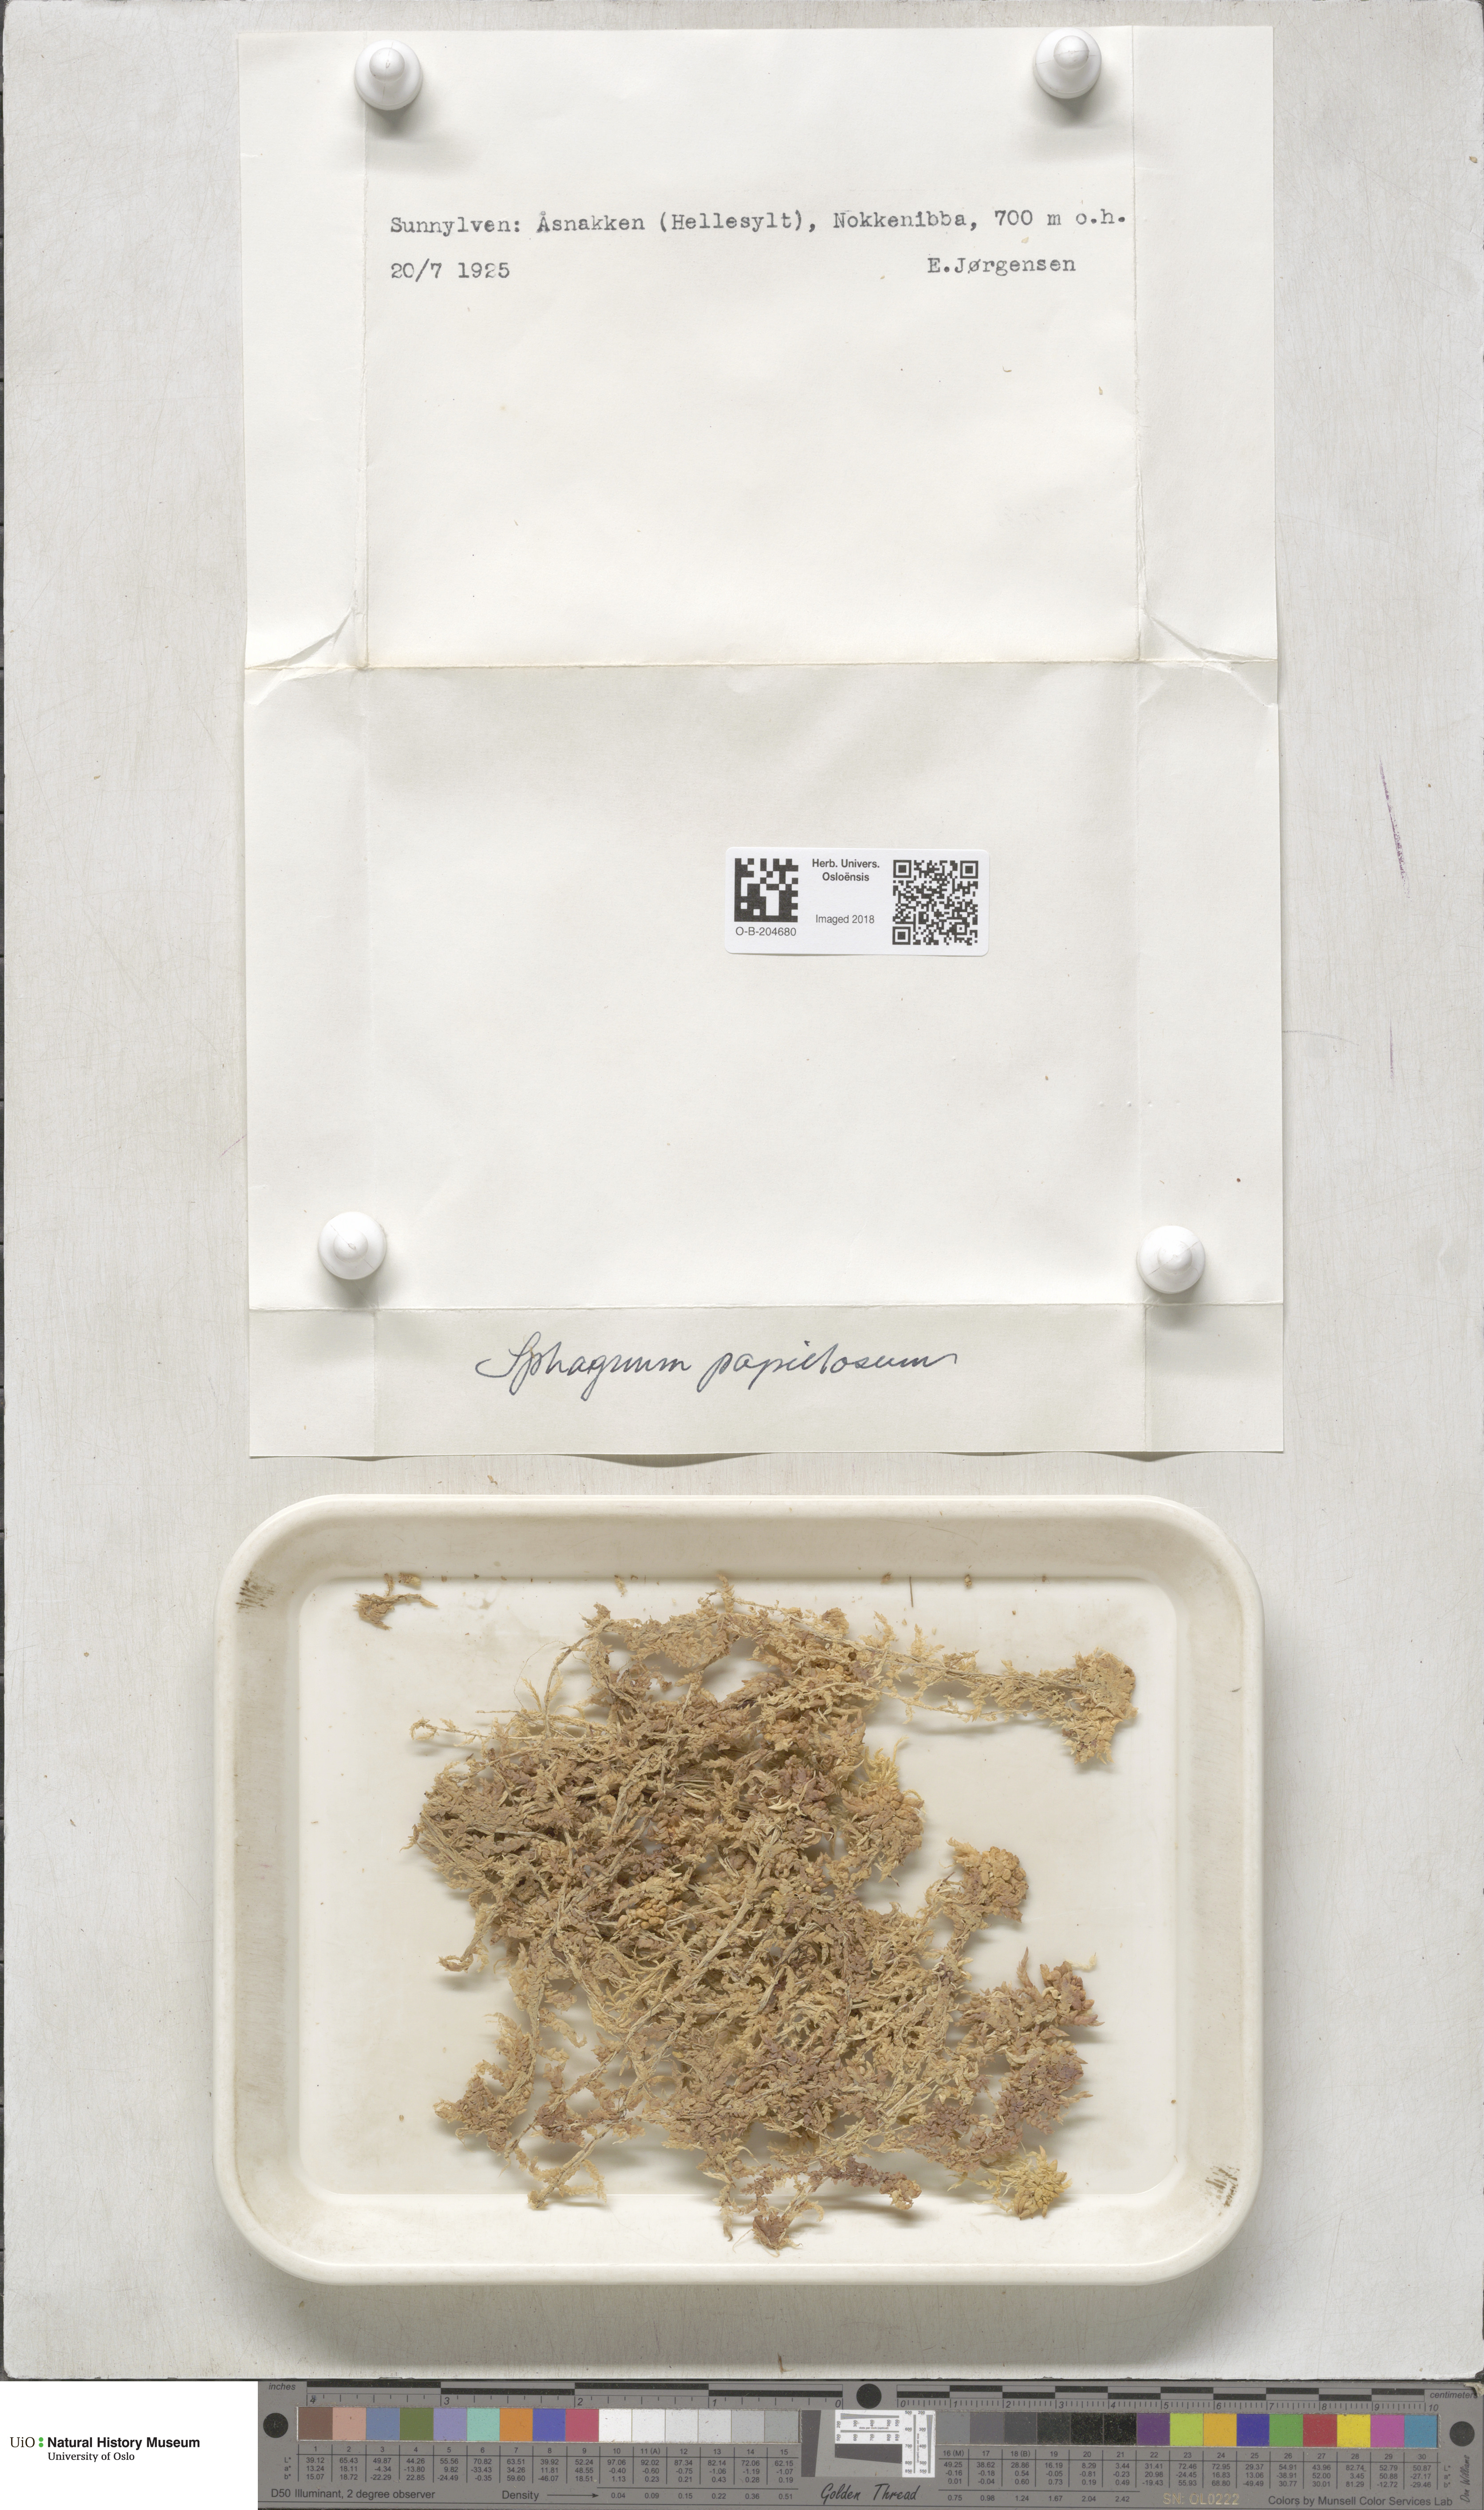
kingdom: Plantae
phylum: Bryophyta
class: Sphagnopsida
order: Sphagnales
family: Sphagnaceae
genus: Sphagnum
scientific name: Sphagnum papillosum
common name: Papillose peat moss
